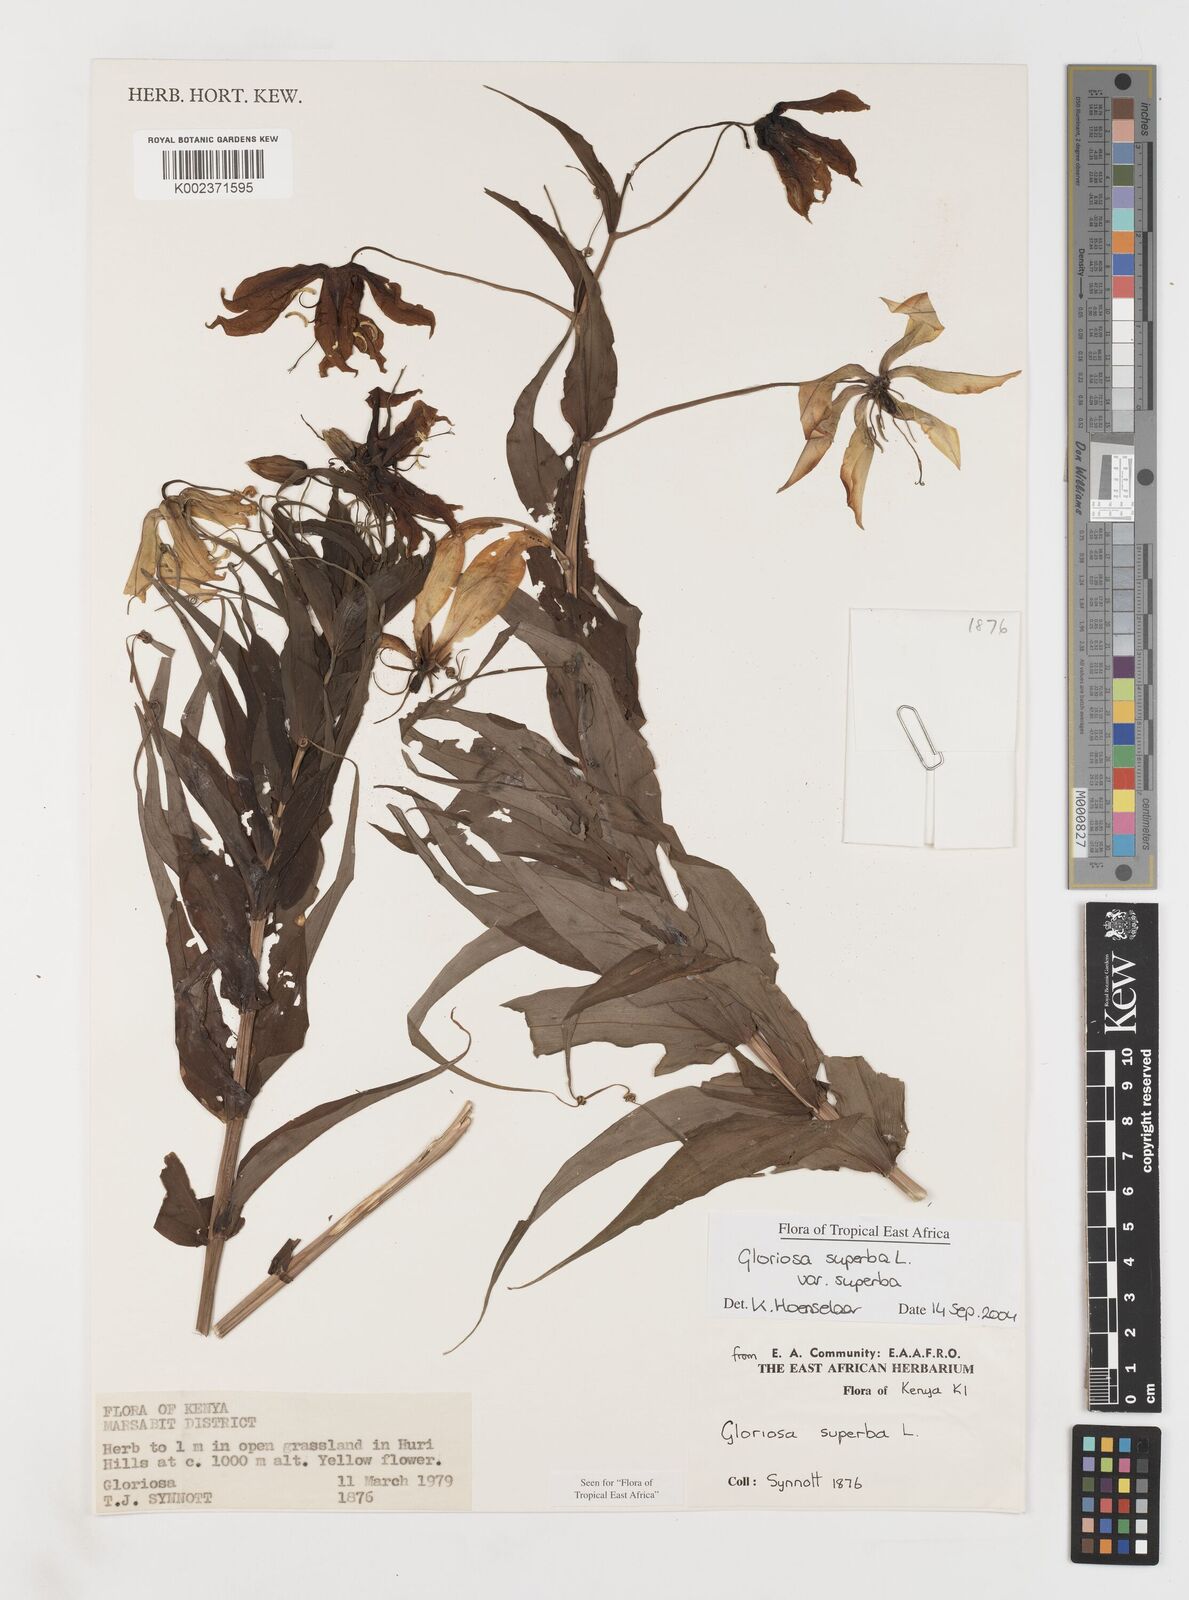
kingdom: Plantae
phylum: Tracheophyta
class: Liliopsida
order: Liliales
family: Colchicaceae
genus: Gloriosa
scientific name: Gloriosa simplex
